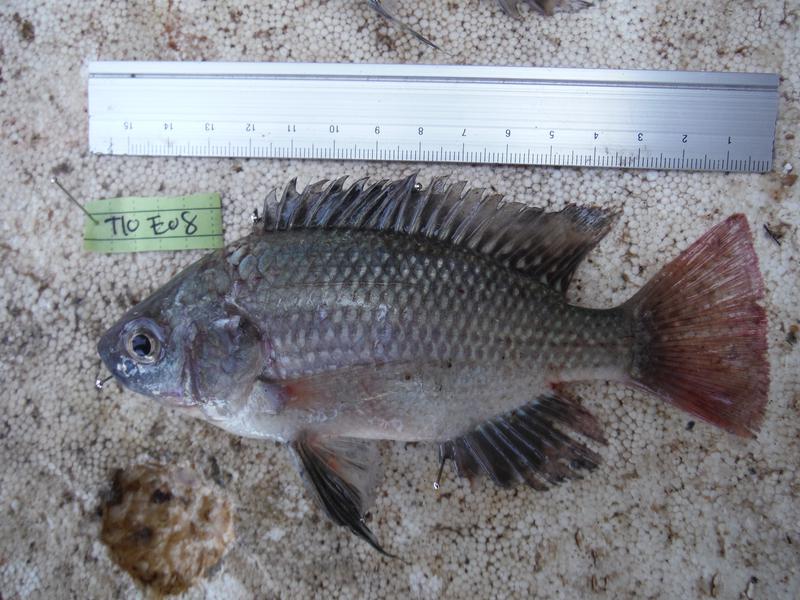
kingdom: Animalia
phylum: Chordata
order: Perciformes
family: Cichlidae
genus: Oreochromis
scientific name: Oreochromis esculentus
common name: Carp
